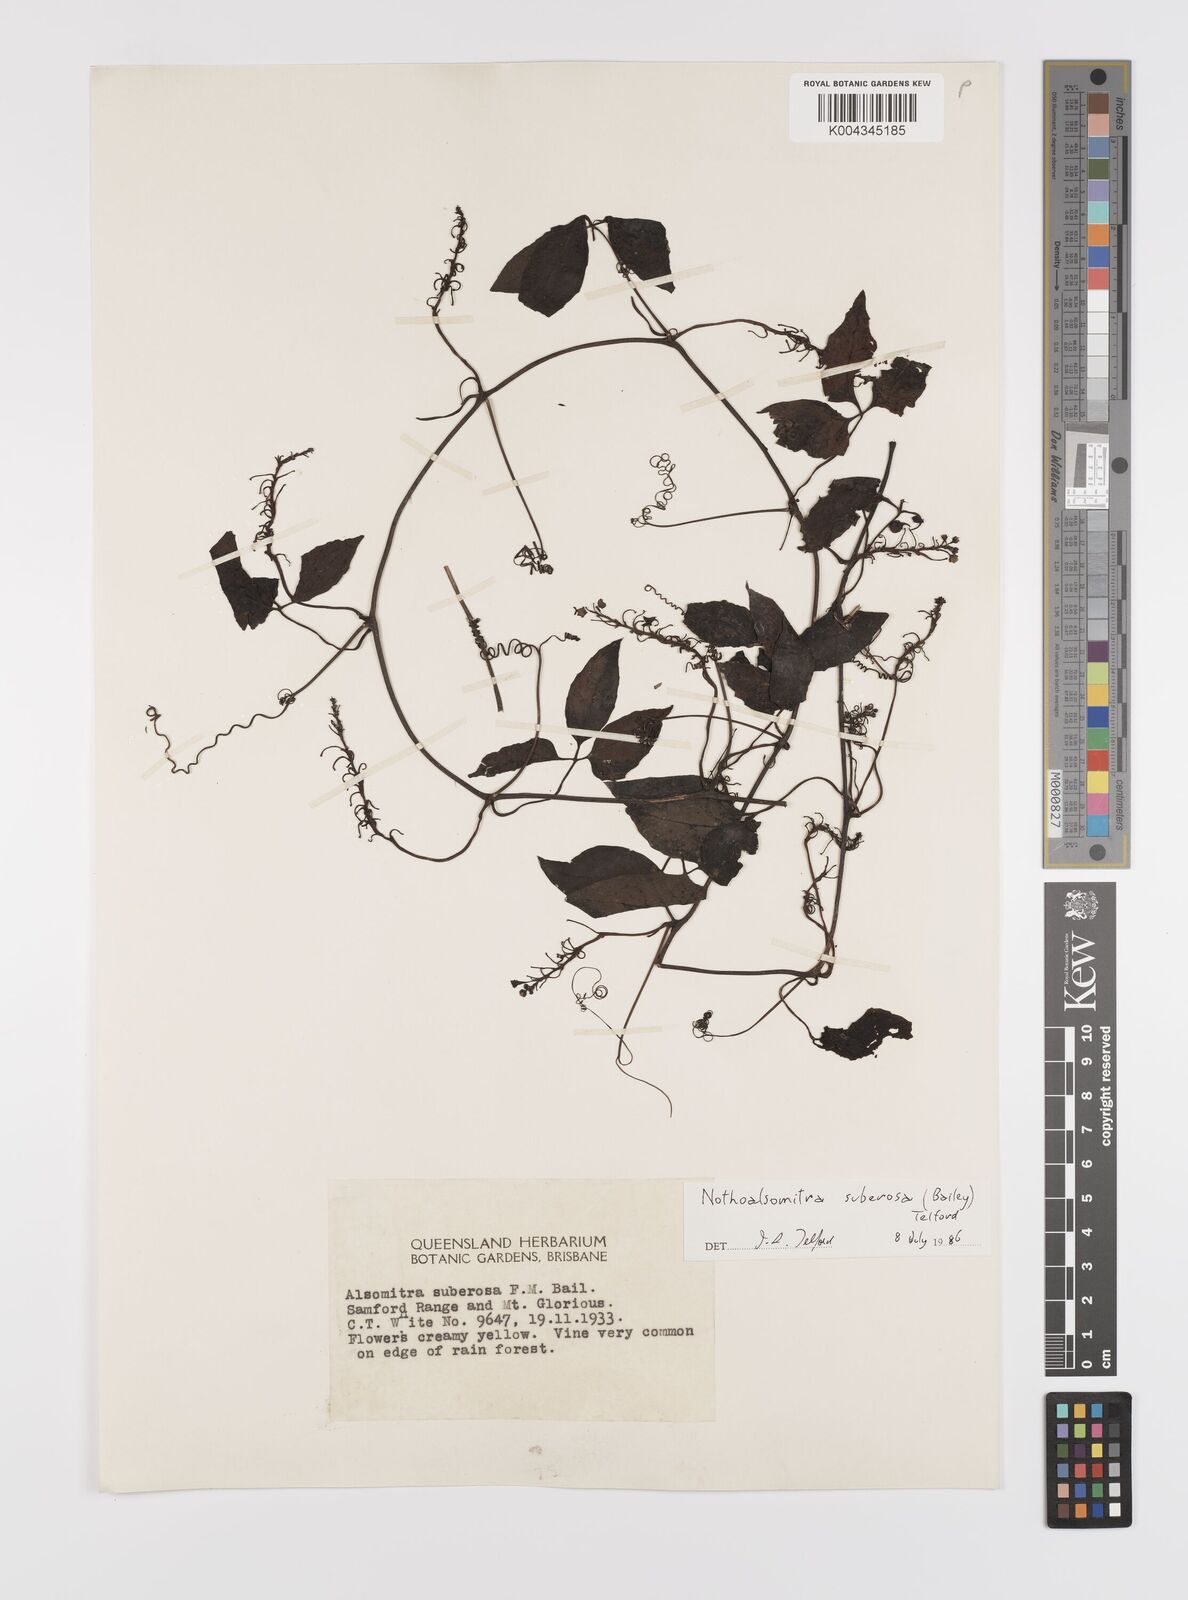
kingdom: Plantae
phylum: Tracheophyta
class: Magnoliopsida
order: Cucurbitales
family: Cucurbitaceae
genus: Nothoalsomitra
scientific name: Nothoalsomitra suberosa
